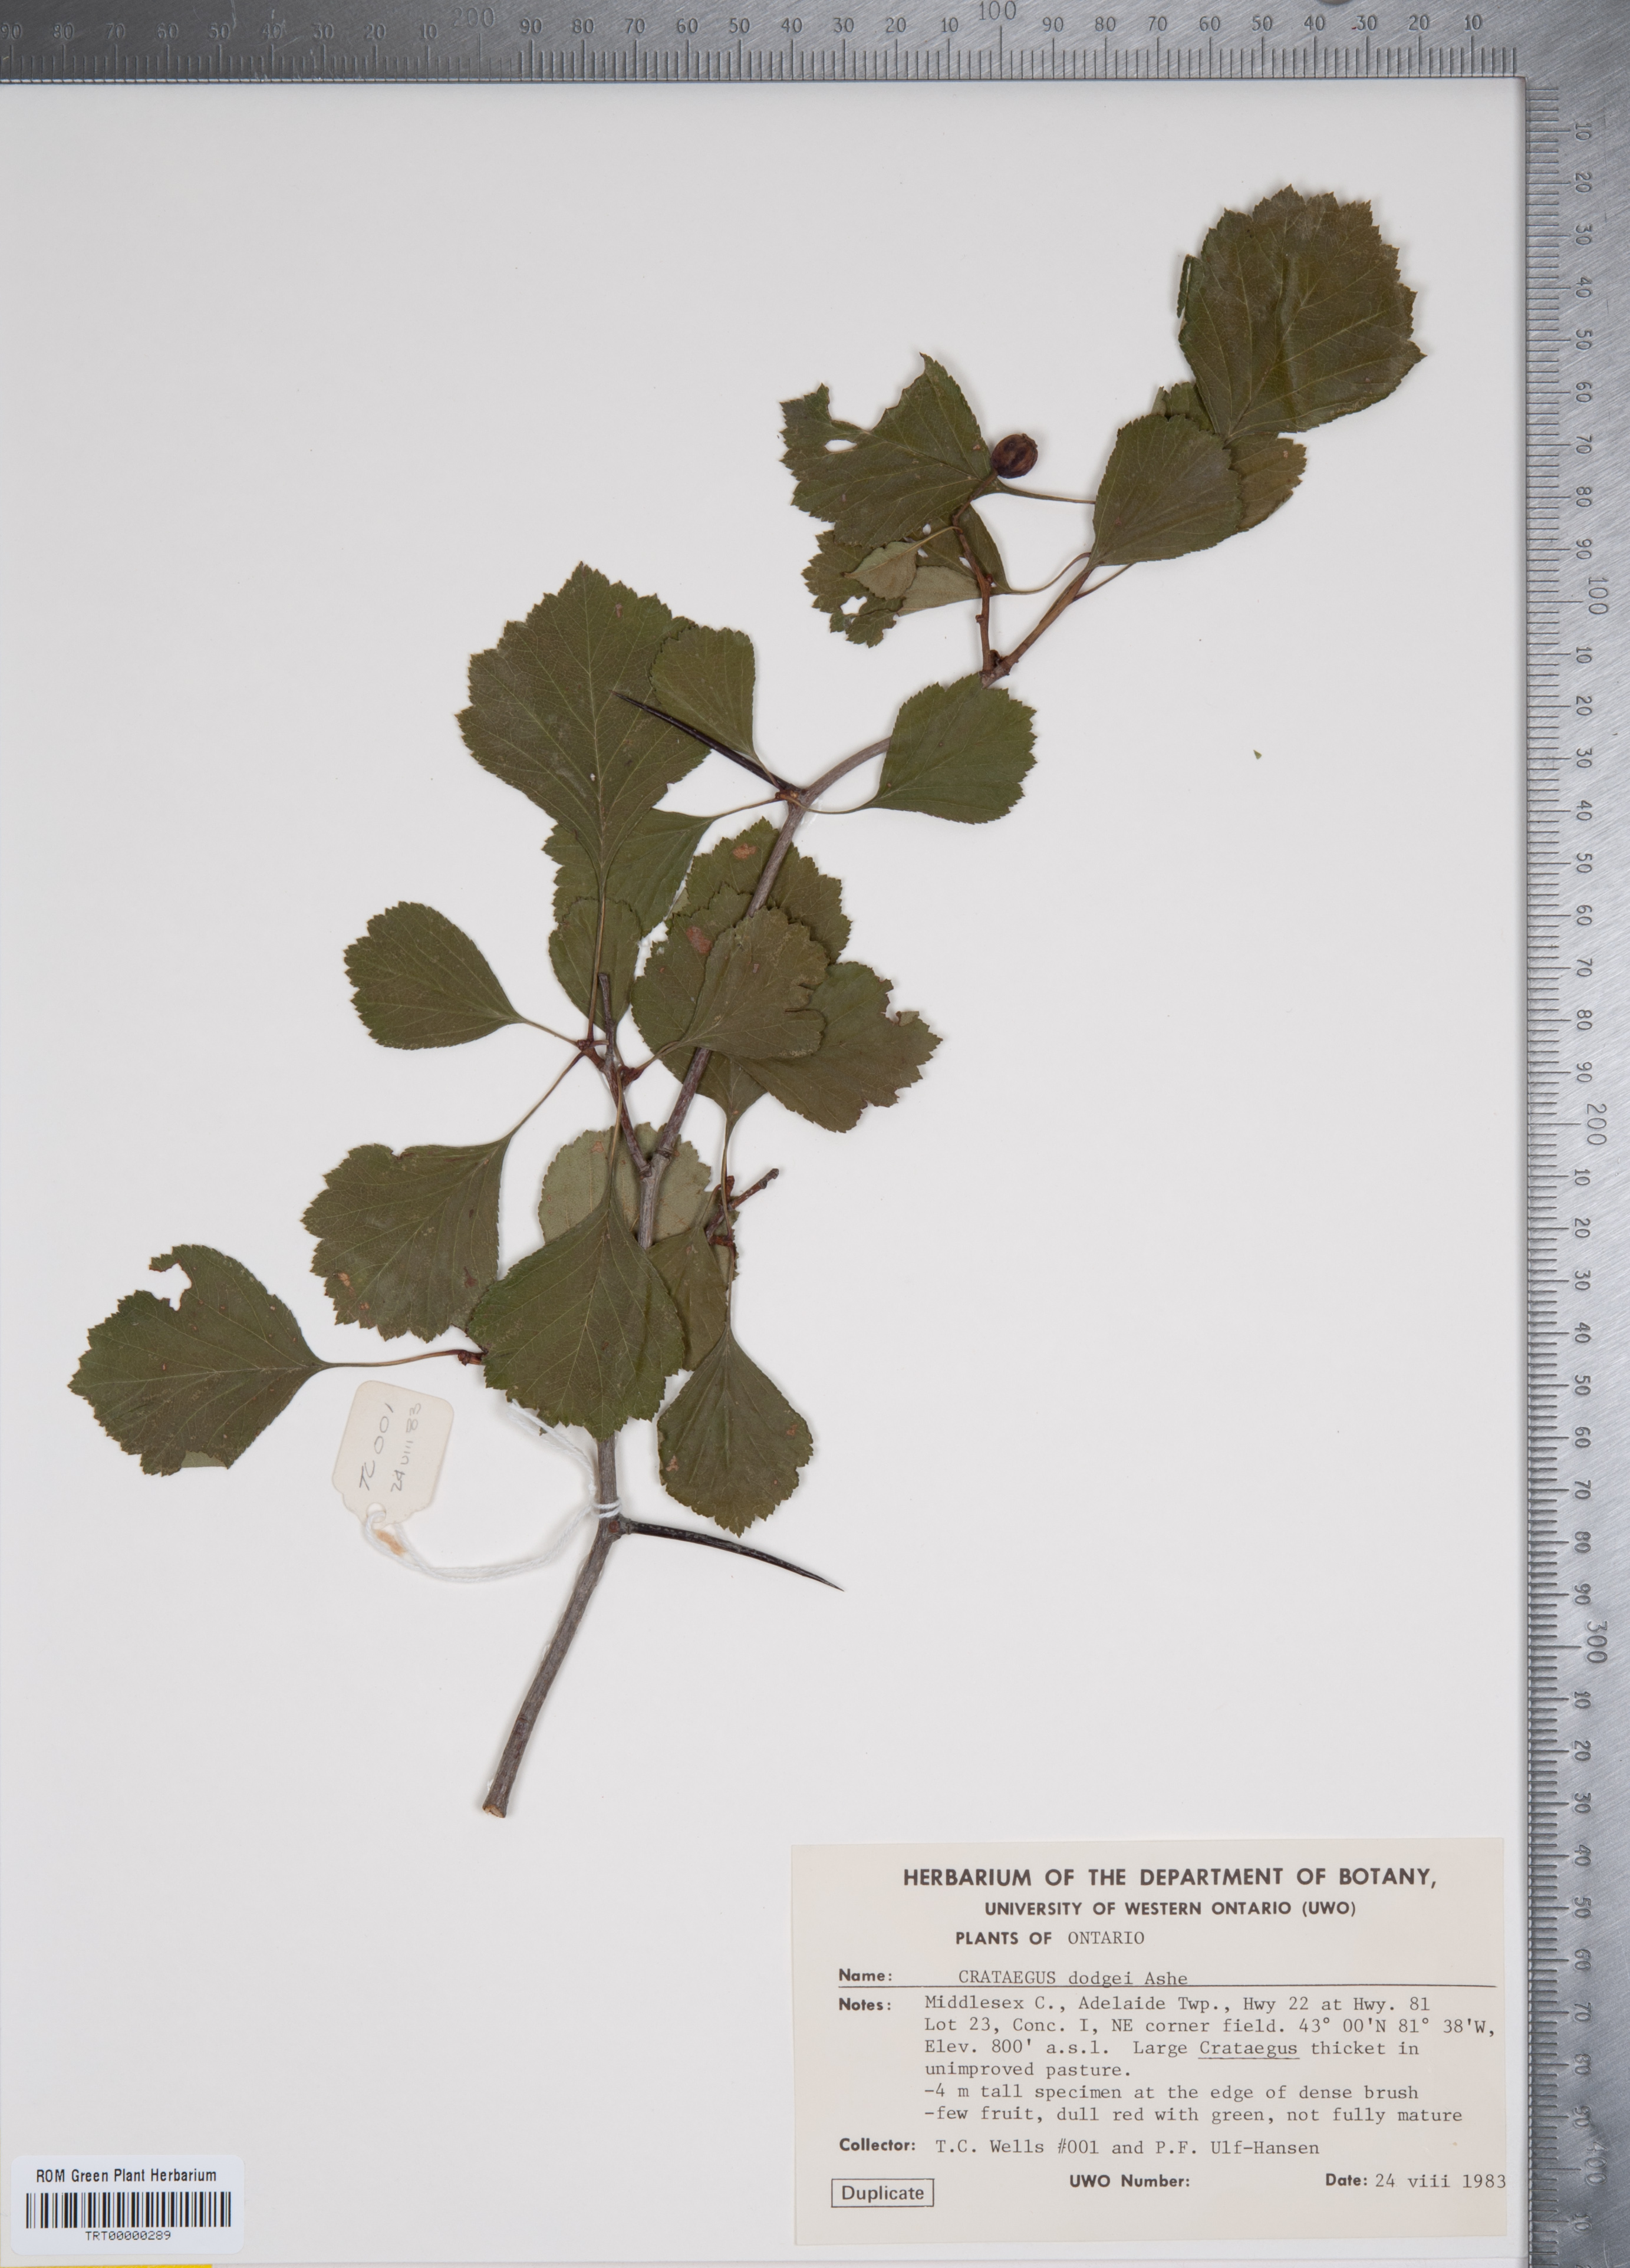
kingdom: Plantae
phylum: Tracheophyta
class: Magnoliopsida
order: Rosales
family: Rosaceae
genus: Crataegus
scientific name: Crataegus dodgei
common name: Dodge's hawthorn
